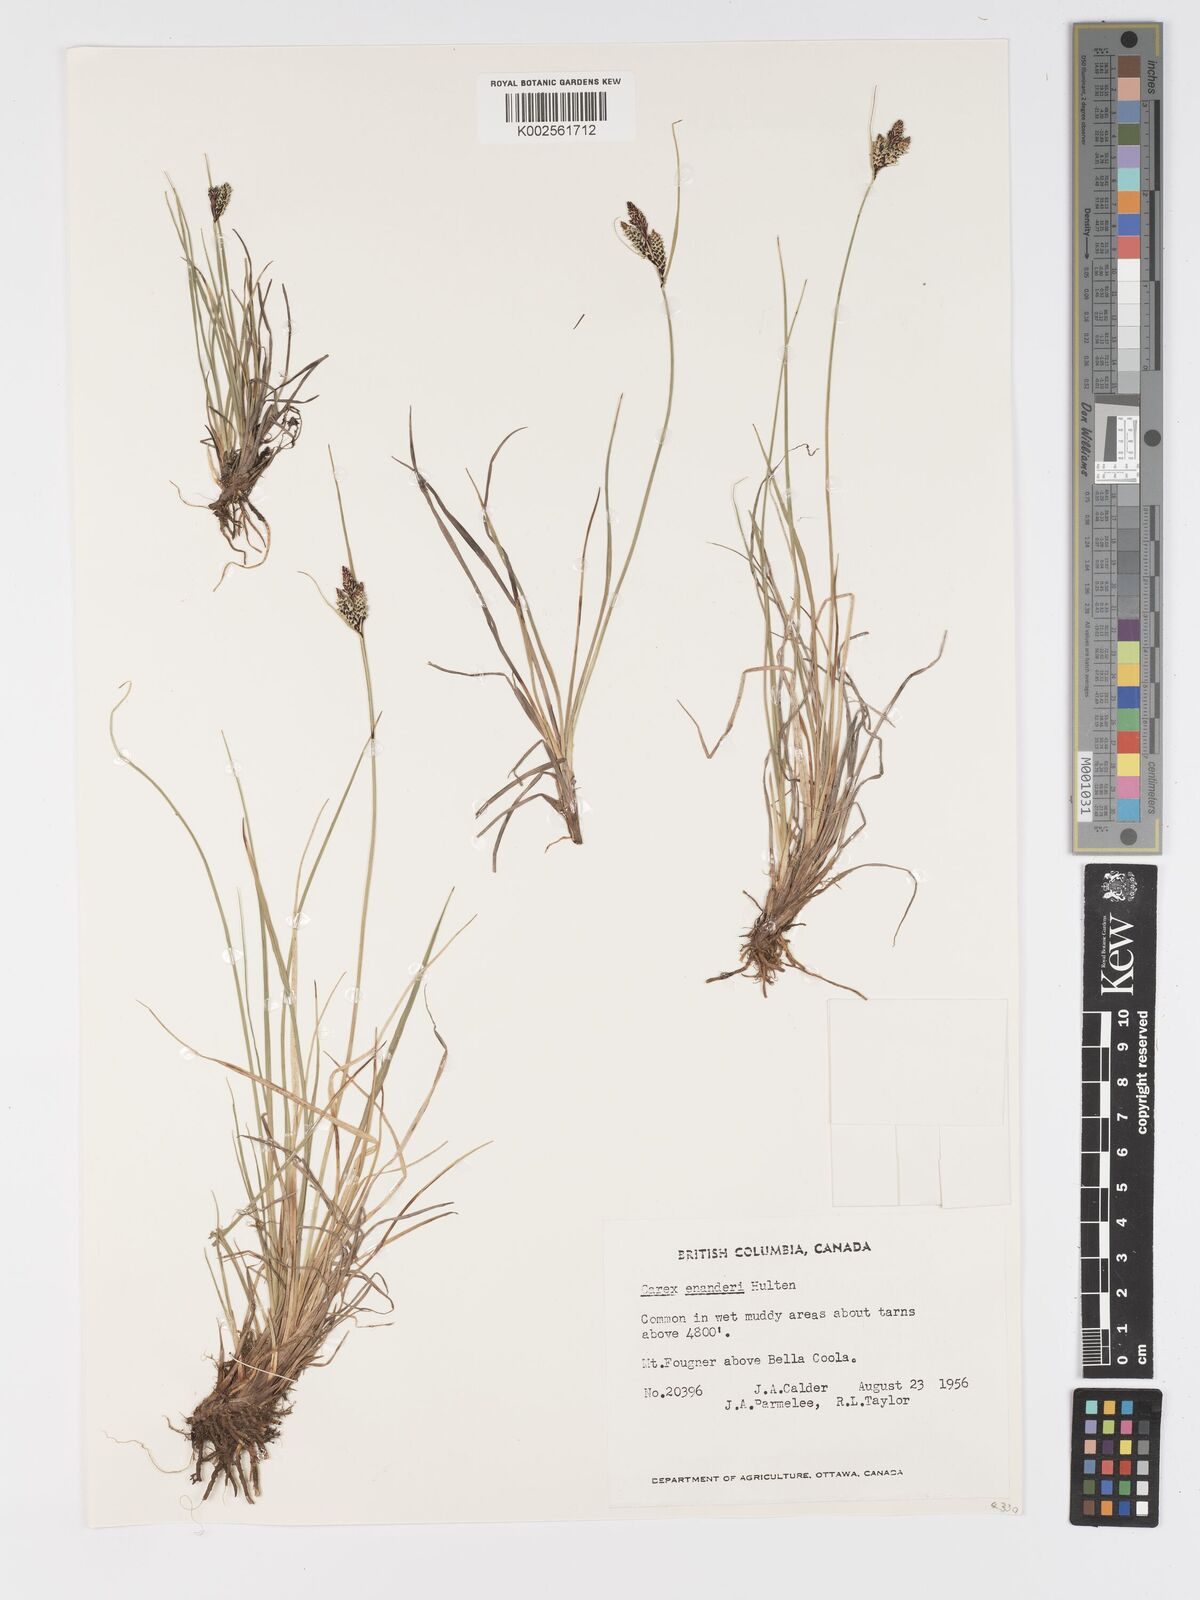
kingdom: Plantae
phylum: Tracheophyta
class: Liliopsida
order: Poales
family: Cyperaceae
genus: Carex
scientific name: Carex enanderi
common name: Enander's sedge
